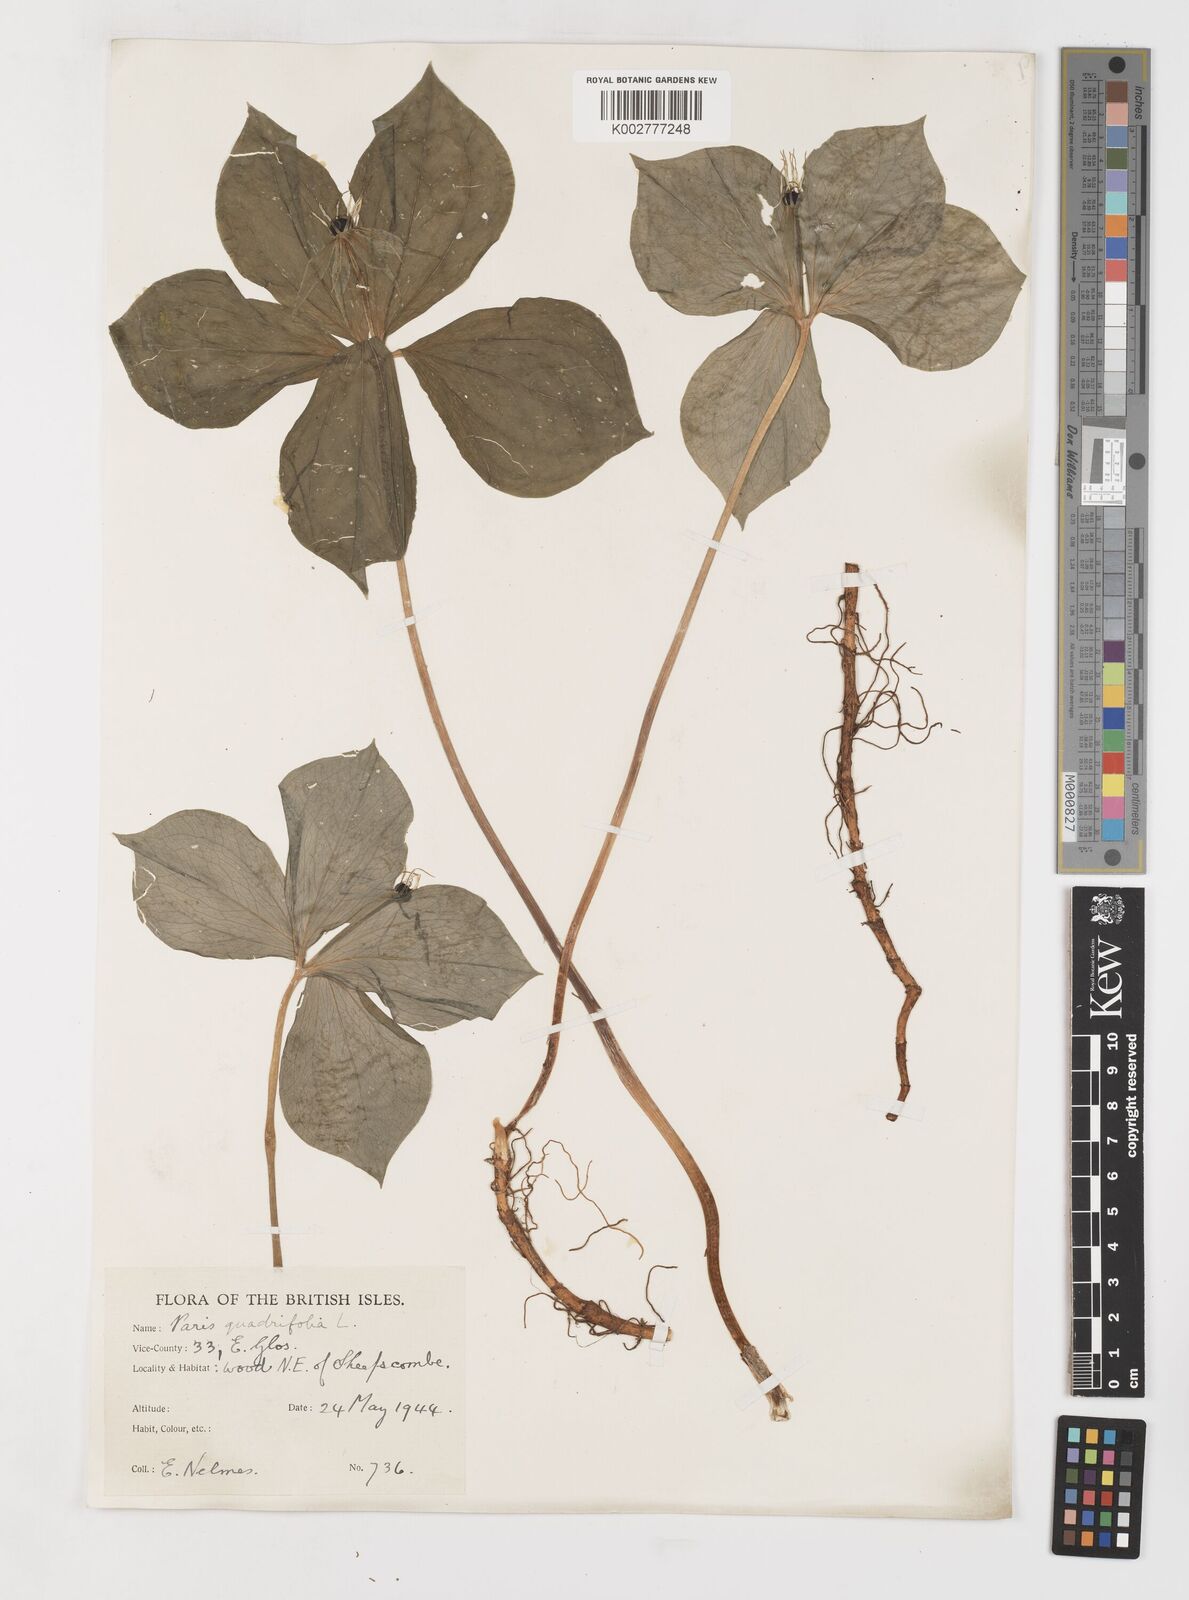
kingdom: Plantae
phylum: Tracheophyta
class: Liliopsida
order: Liliales
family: Melanthiaceae
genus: Paris
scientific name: Paris
